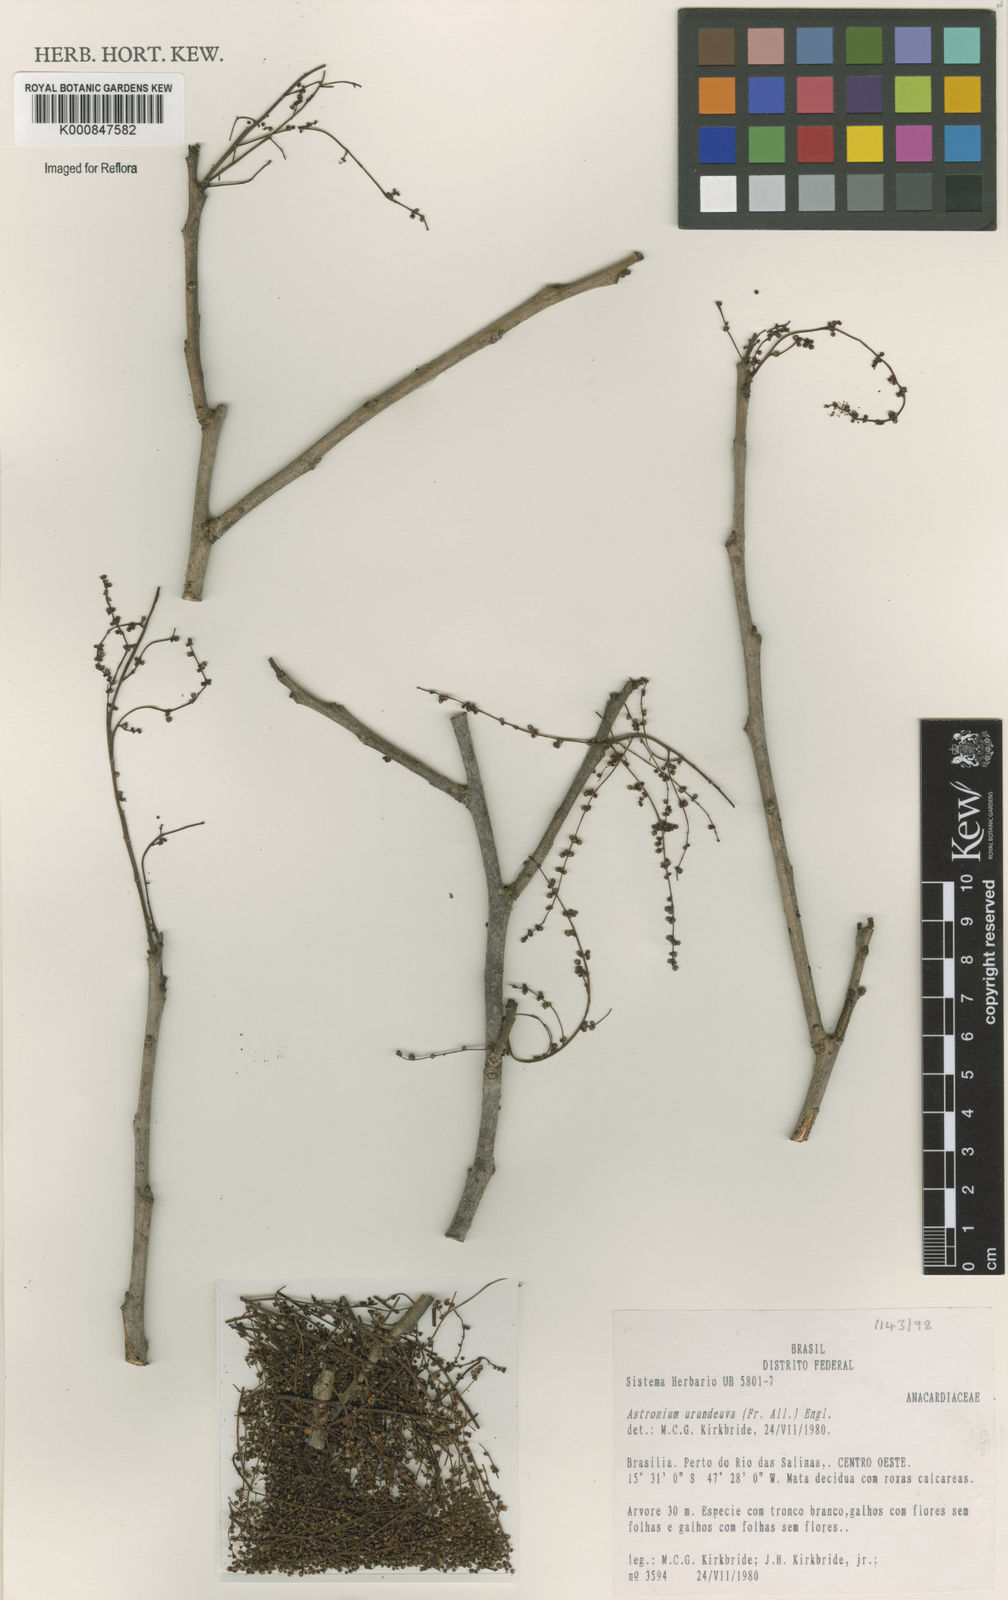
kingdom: Plantae
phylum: Tracheophyta
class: Magnoliopsida
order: Sapindales
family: Anacardiaceae
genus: Astronium
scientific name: Astronium
